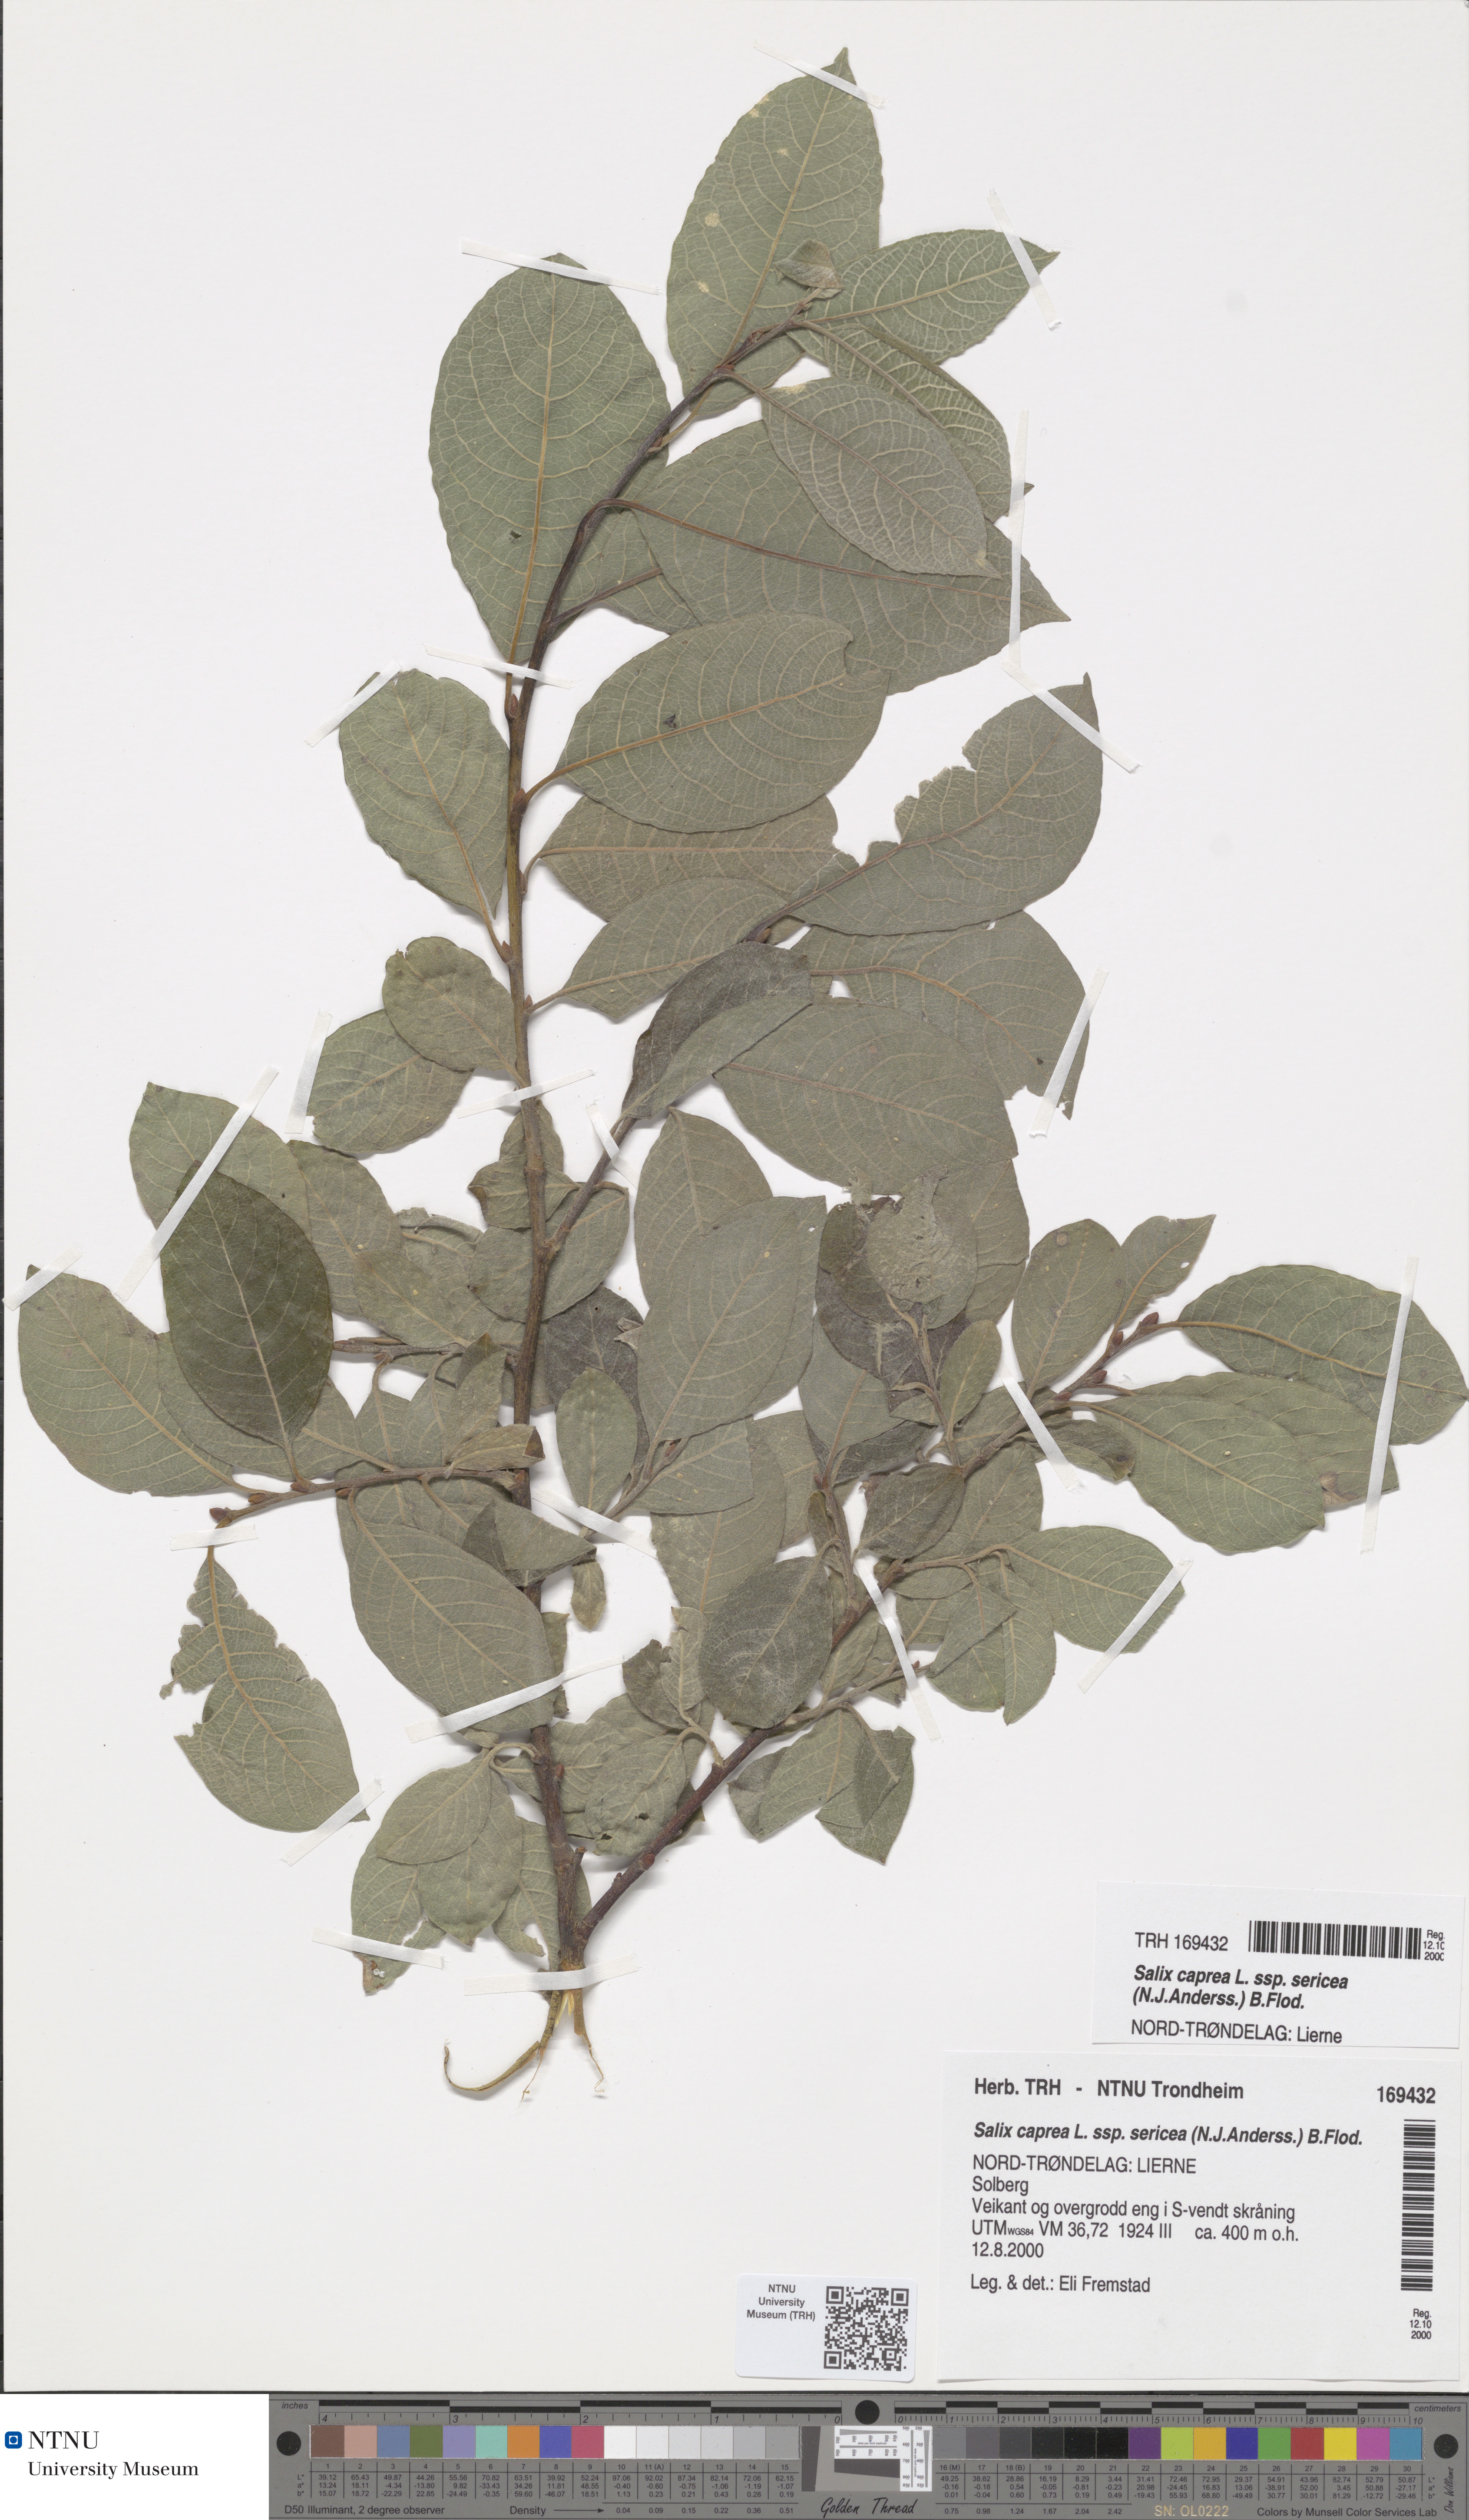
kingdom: Plantae
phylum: Tracheophyta
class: Magnoliopsida
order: Malpighiales
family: Salicaceae
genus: Salix
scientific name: Salix caprea
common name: Goat willow
